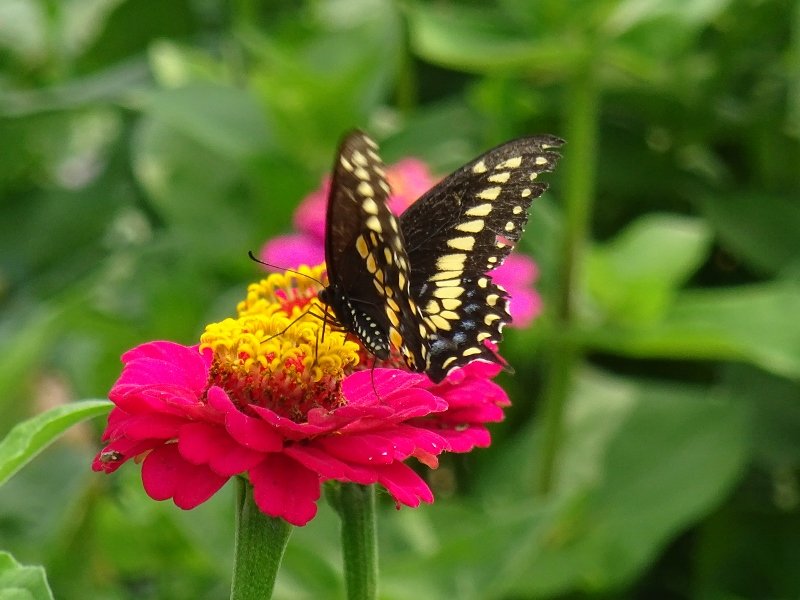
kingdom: Animalia
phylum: Arthropoda
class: Insecta
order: Lepidoptera
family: Papilionidae
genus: Papilio
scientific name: Papilio polyxenes
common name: Black Swallowtail
